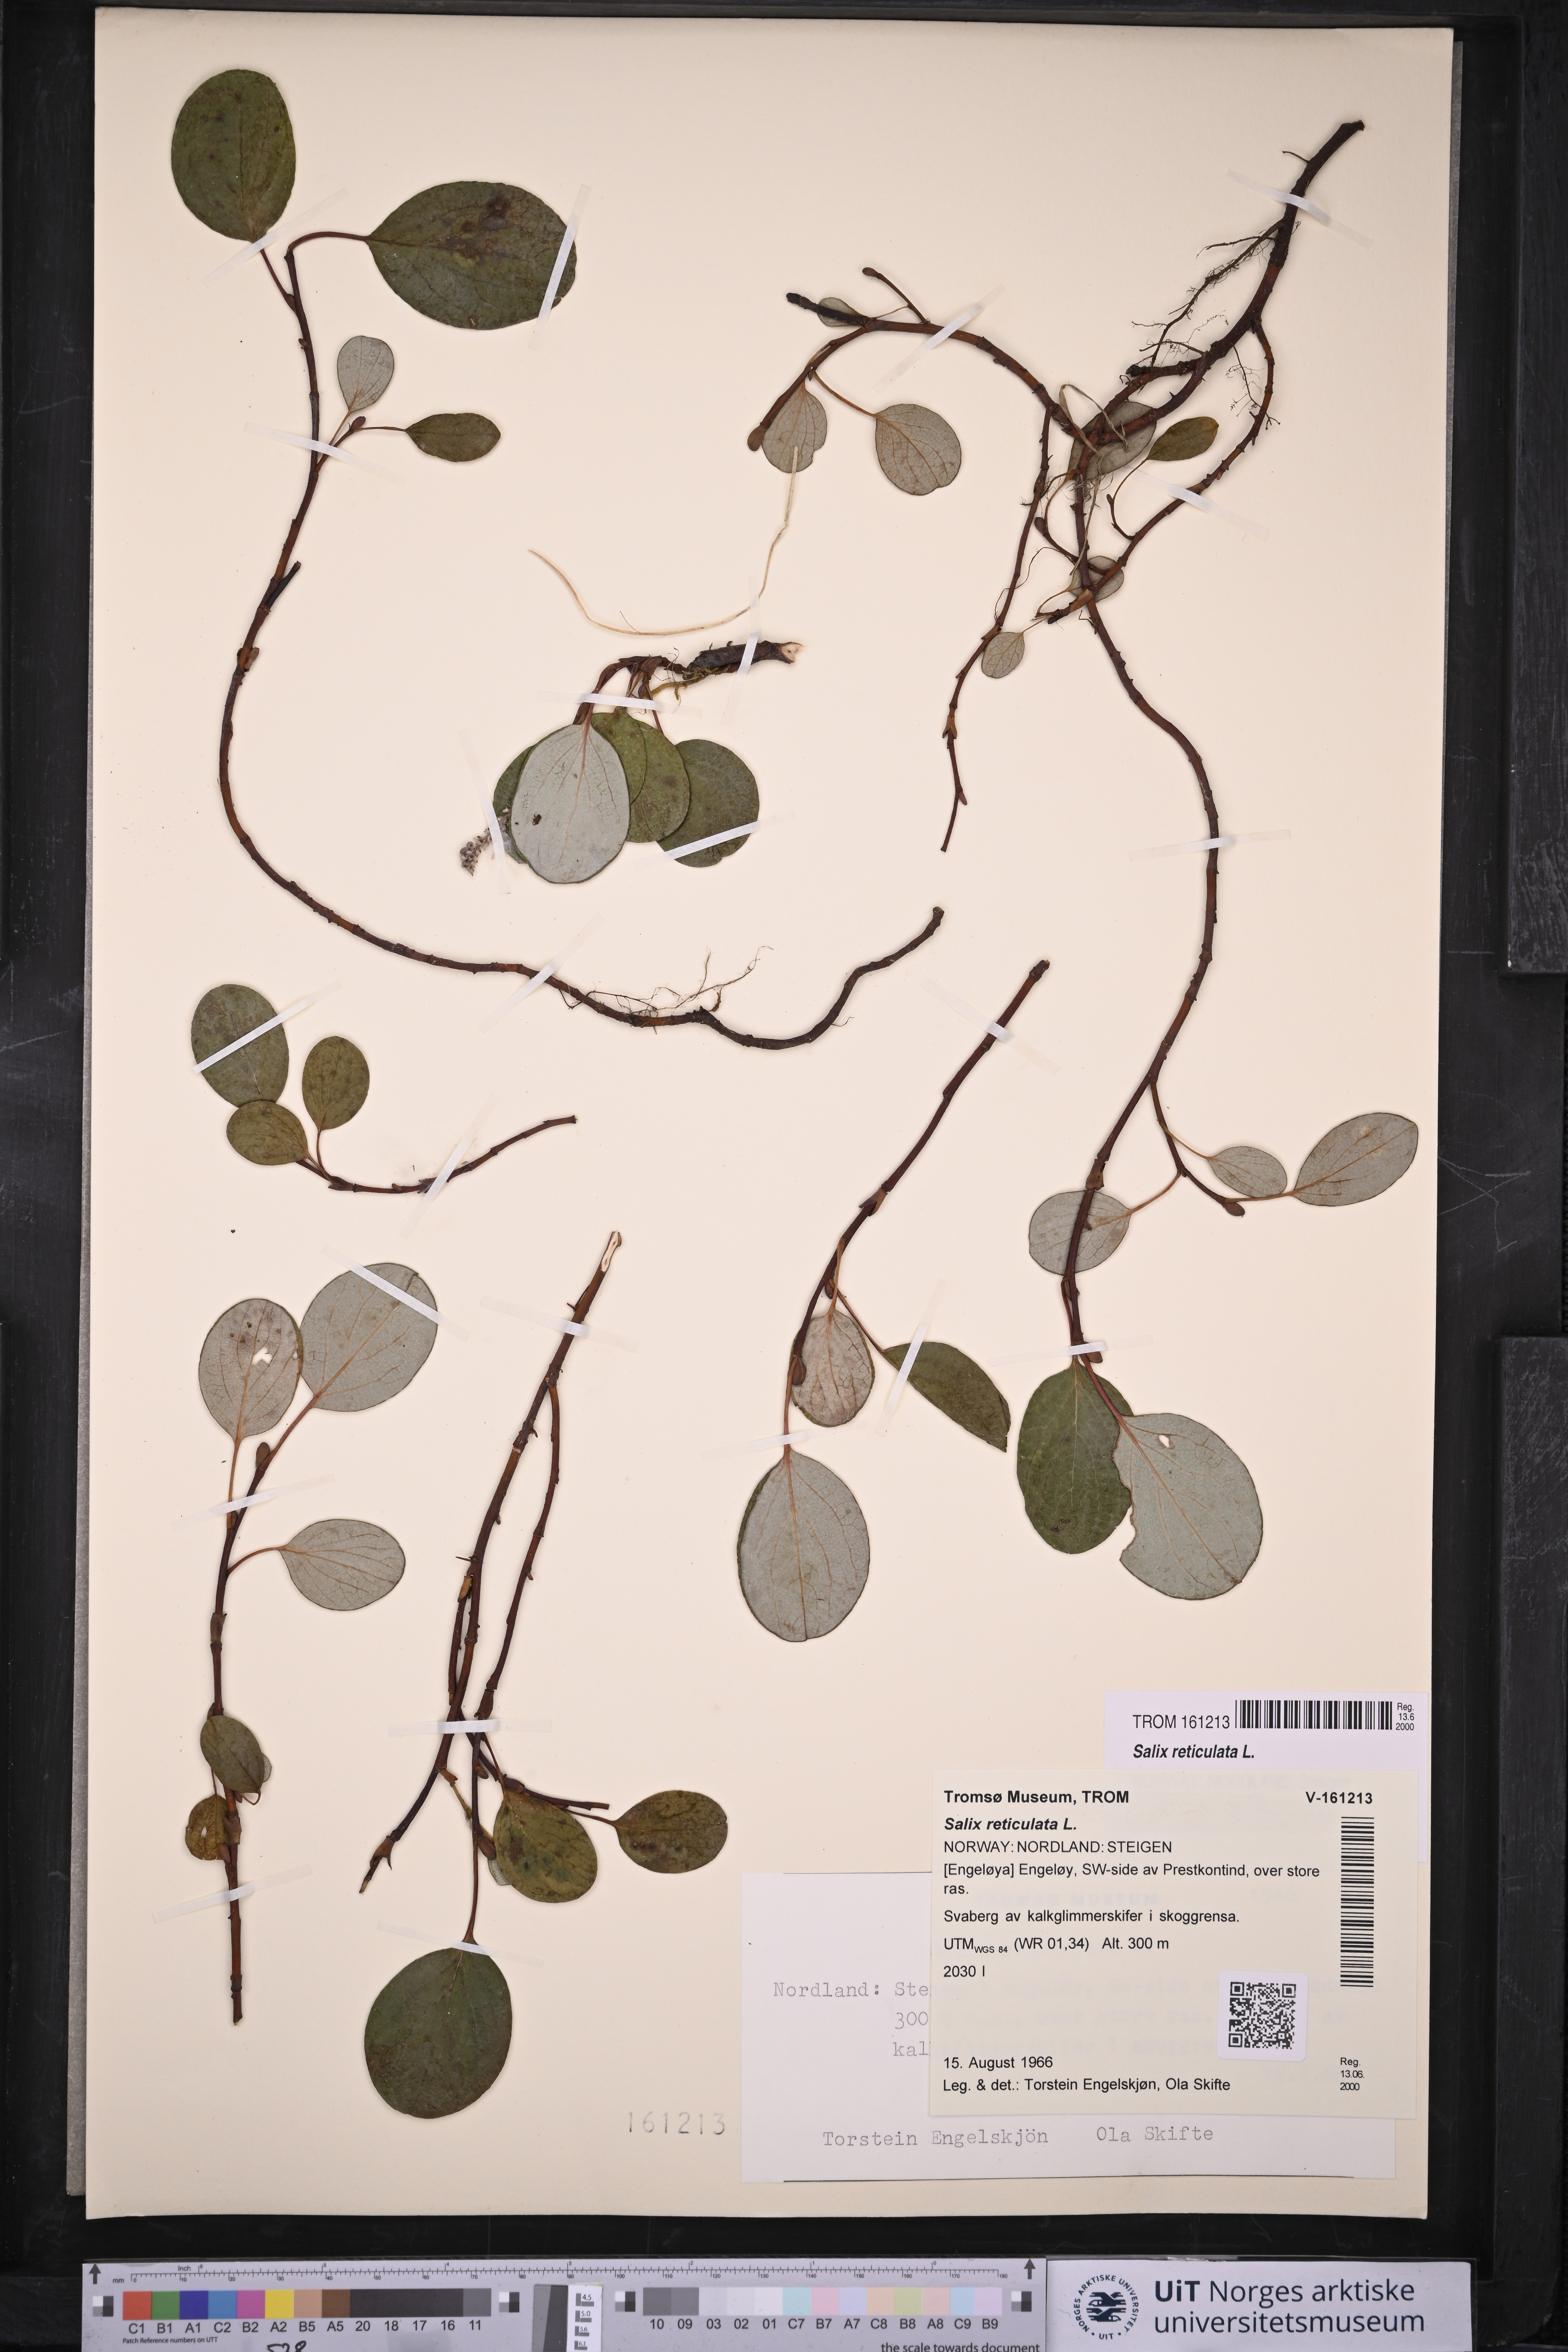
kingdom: Plantae
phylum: Tracheophyta
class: Magnoliopsida
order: Malpighiales
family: Salicaceae
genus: Salix
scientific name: Salix reticulata
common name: Net-leaved willow
